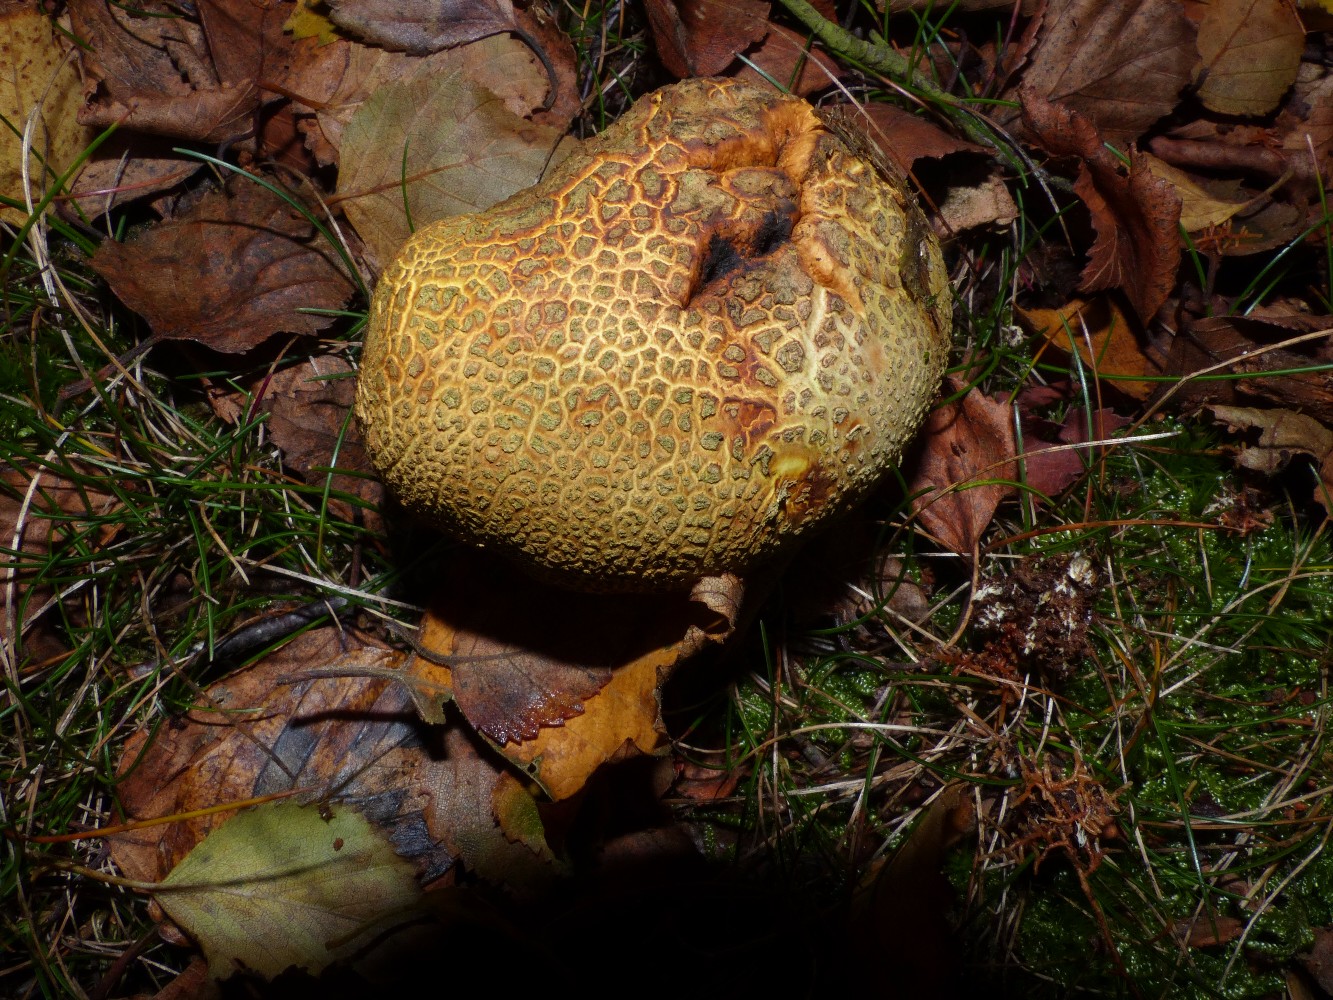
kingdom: Fungi
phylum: Basidiomycota
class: Agaricomycetes
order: Boletales
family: Sclerodermataceae
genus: Scleroderma
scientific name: Scleroderma citrinum
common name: almindelig bruskbold
